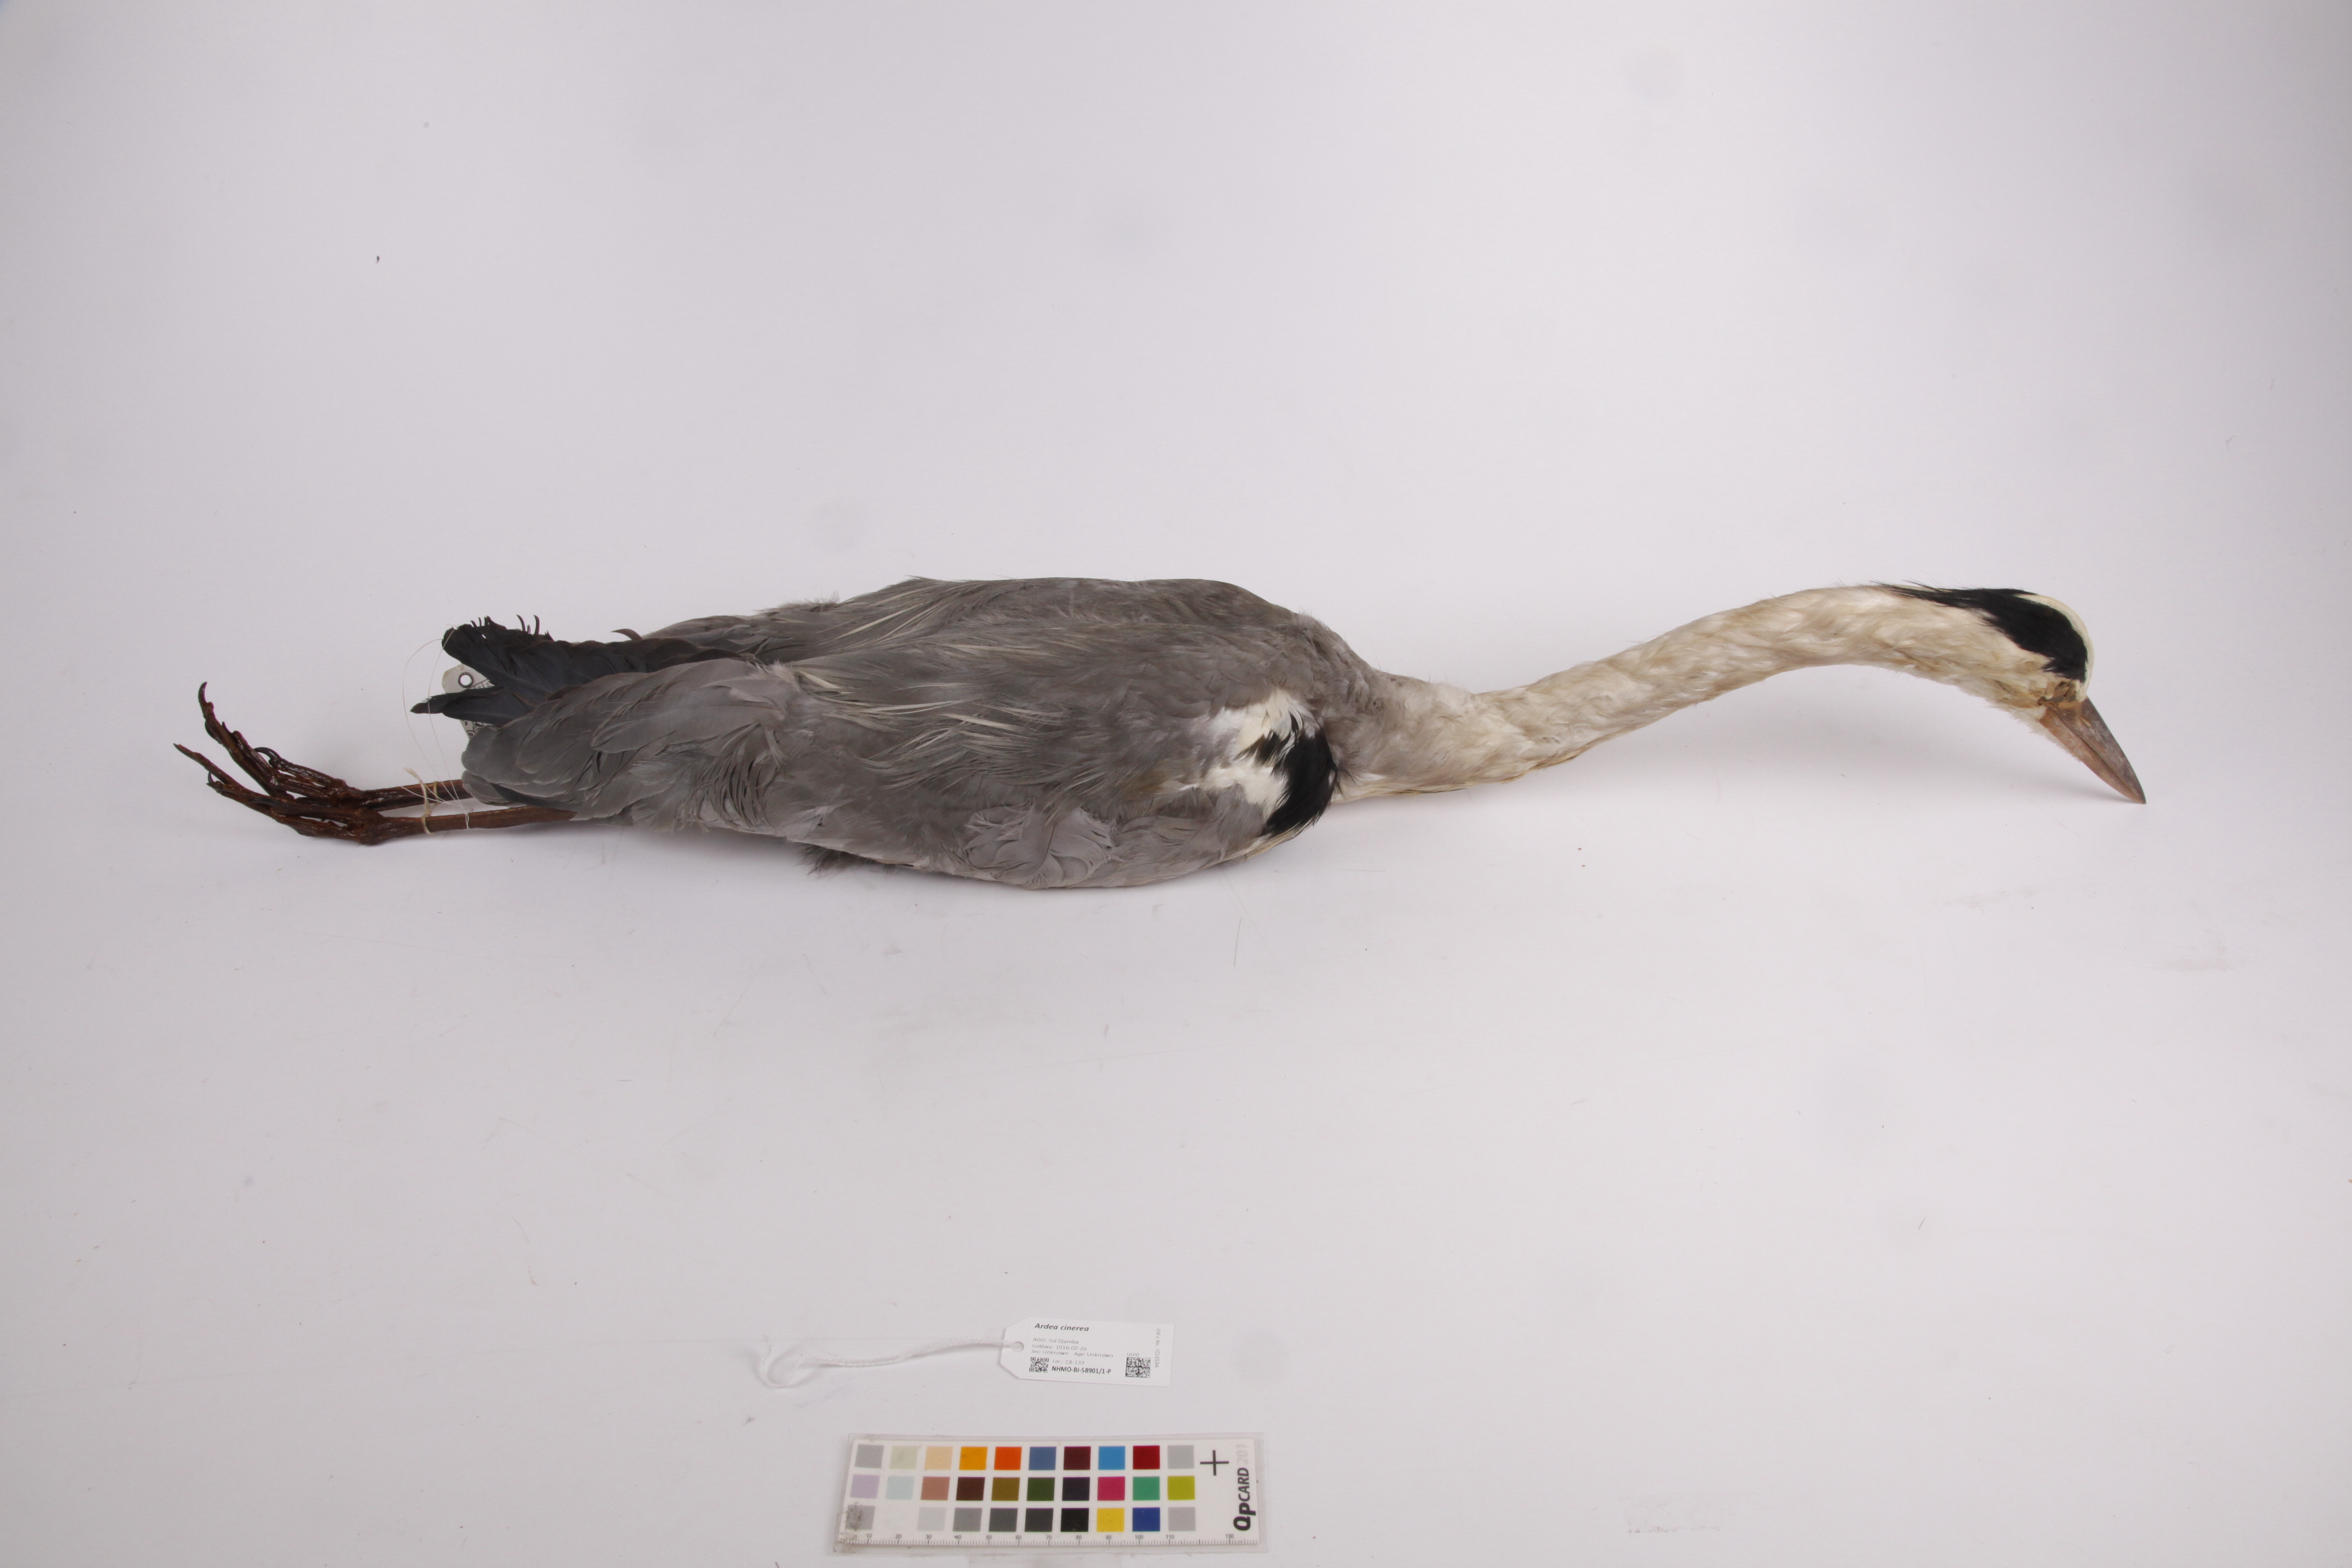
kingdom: Animalia
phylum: Chordata
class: Aves
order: Pelecaniformes
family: Ardeidae
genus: Ardea
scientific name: Ardea cinerea
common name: Grey heron
